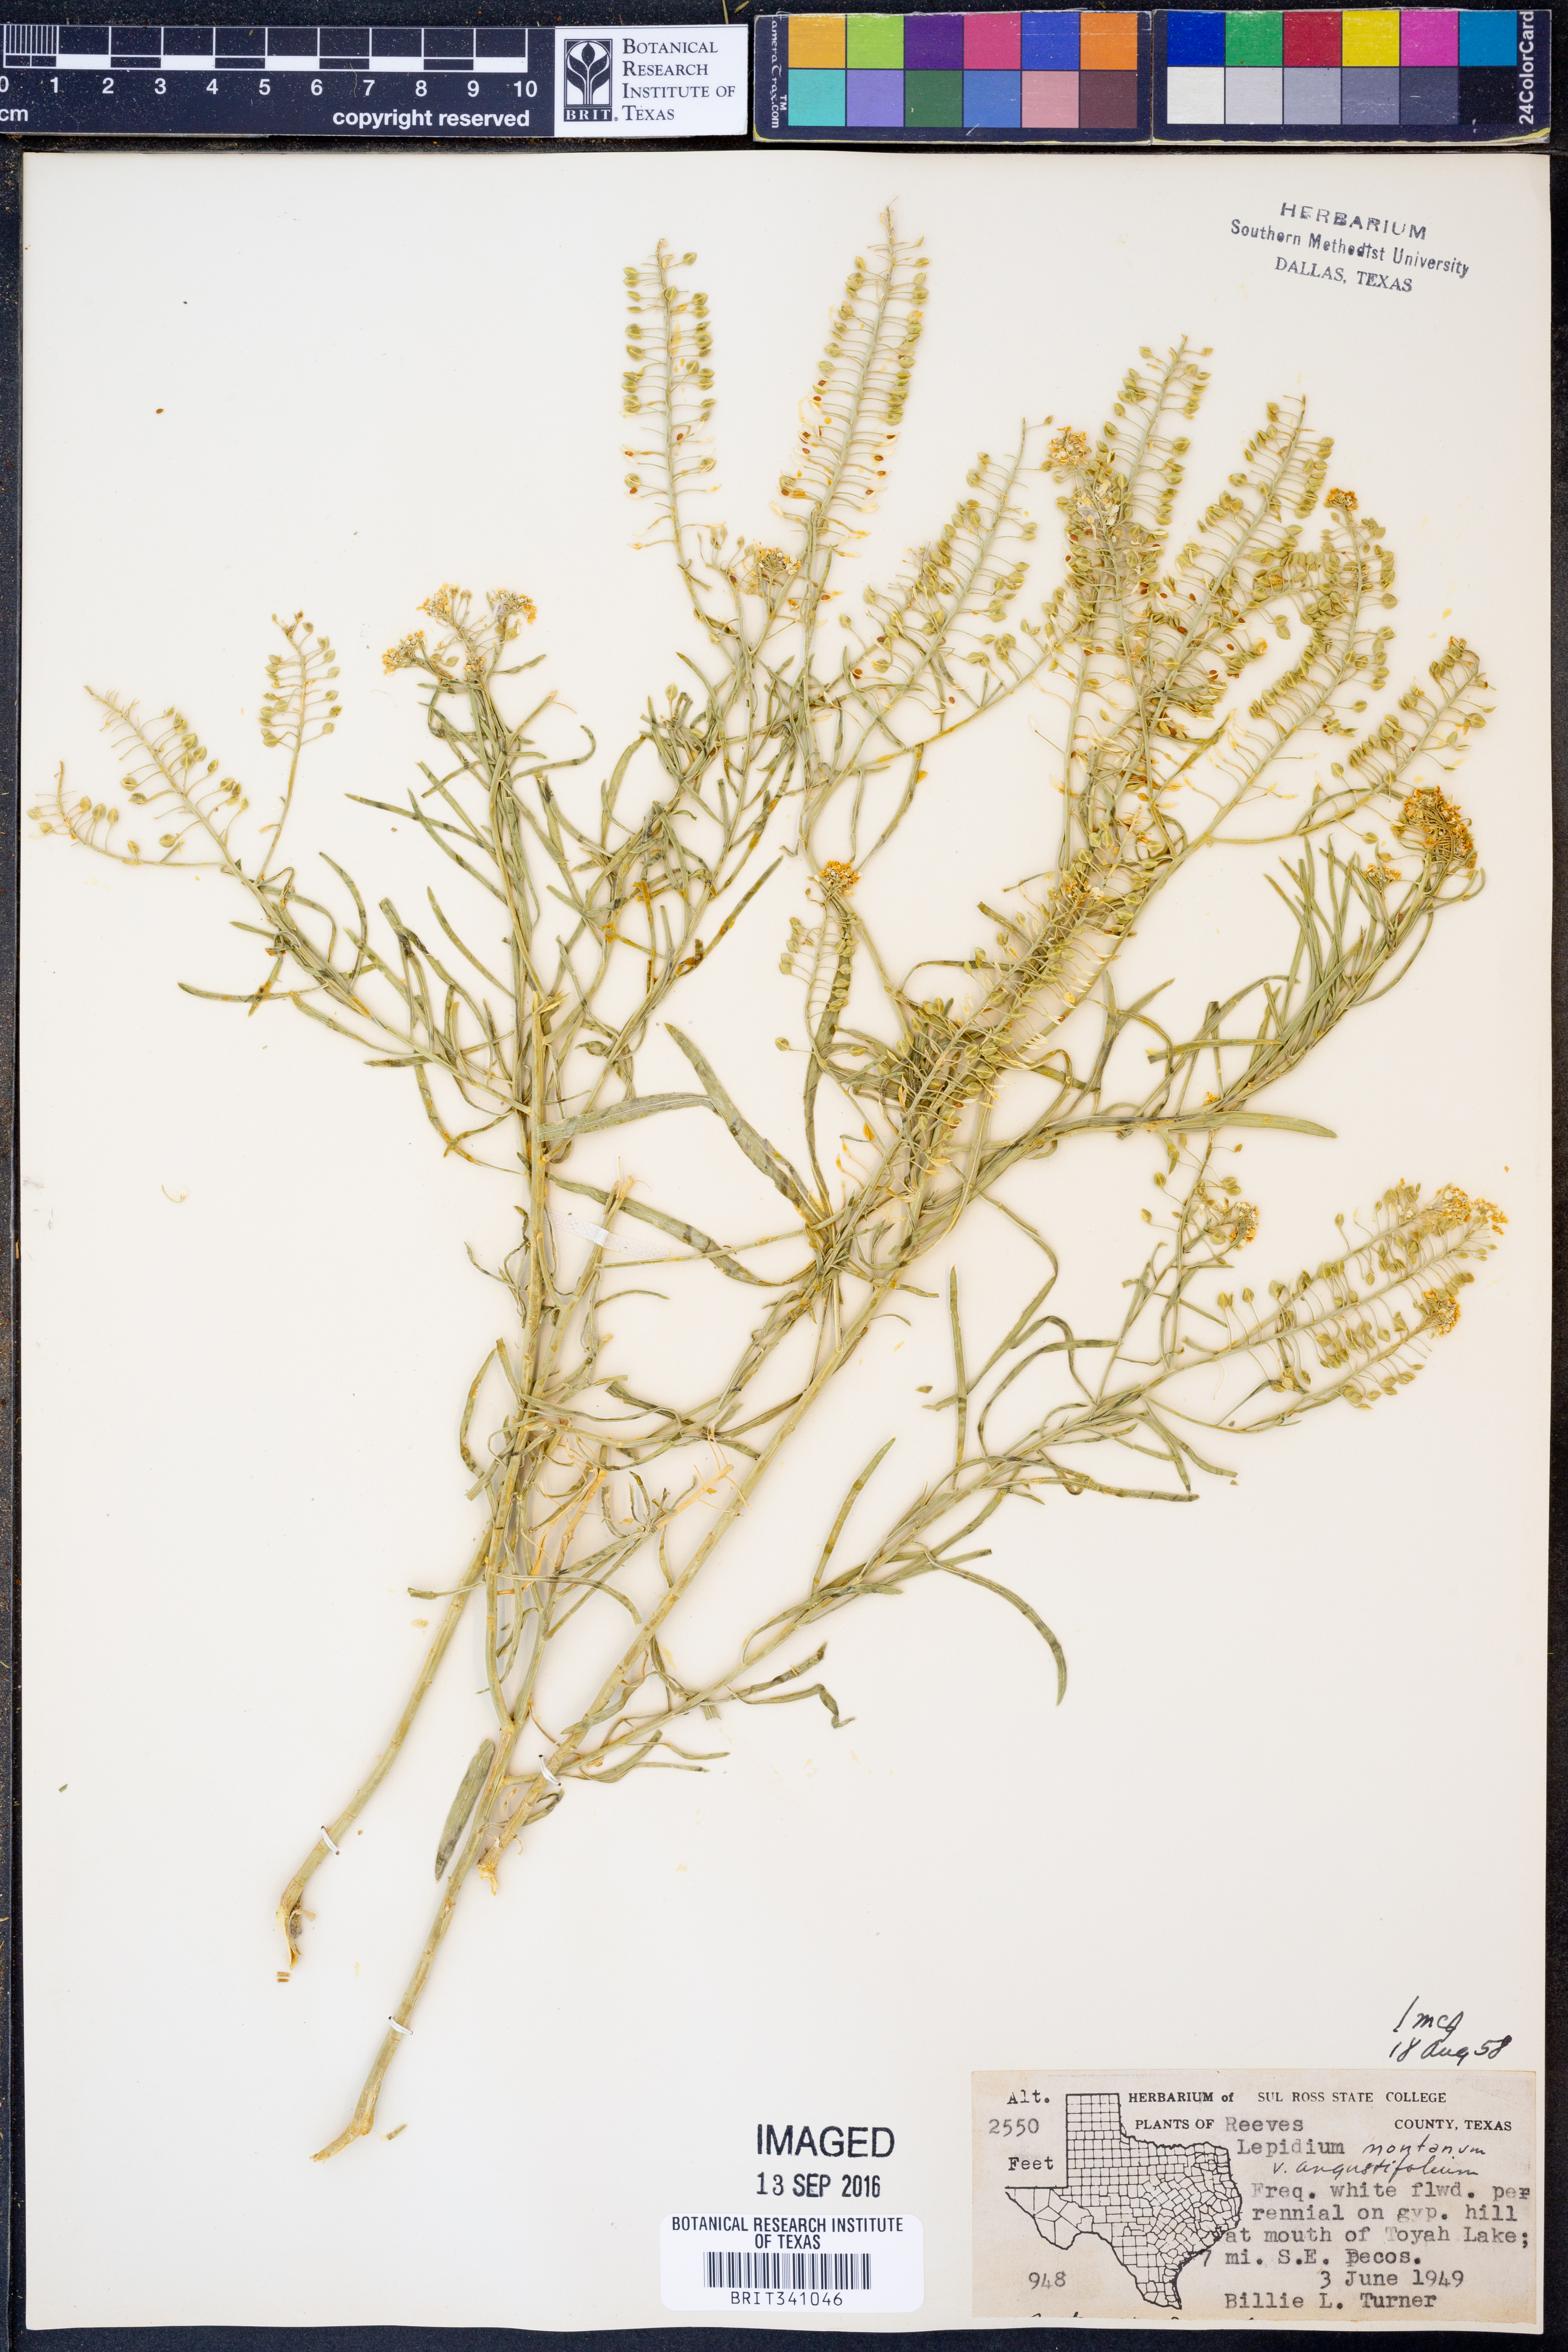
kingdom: Plantae
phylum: Tracheophyta
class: Magnoliopsida
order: Brassicales
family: Brassicaceae
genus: Lepidium
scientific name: Lepidium alyssoides
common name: Mesa pepperweed
